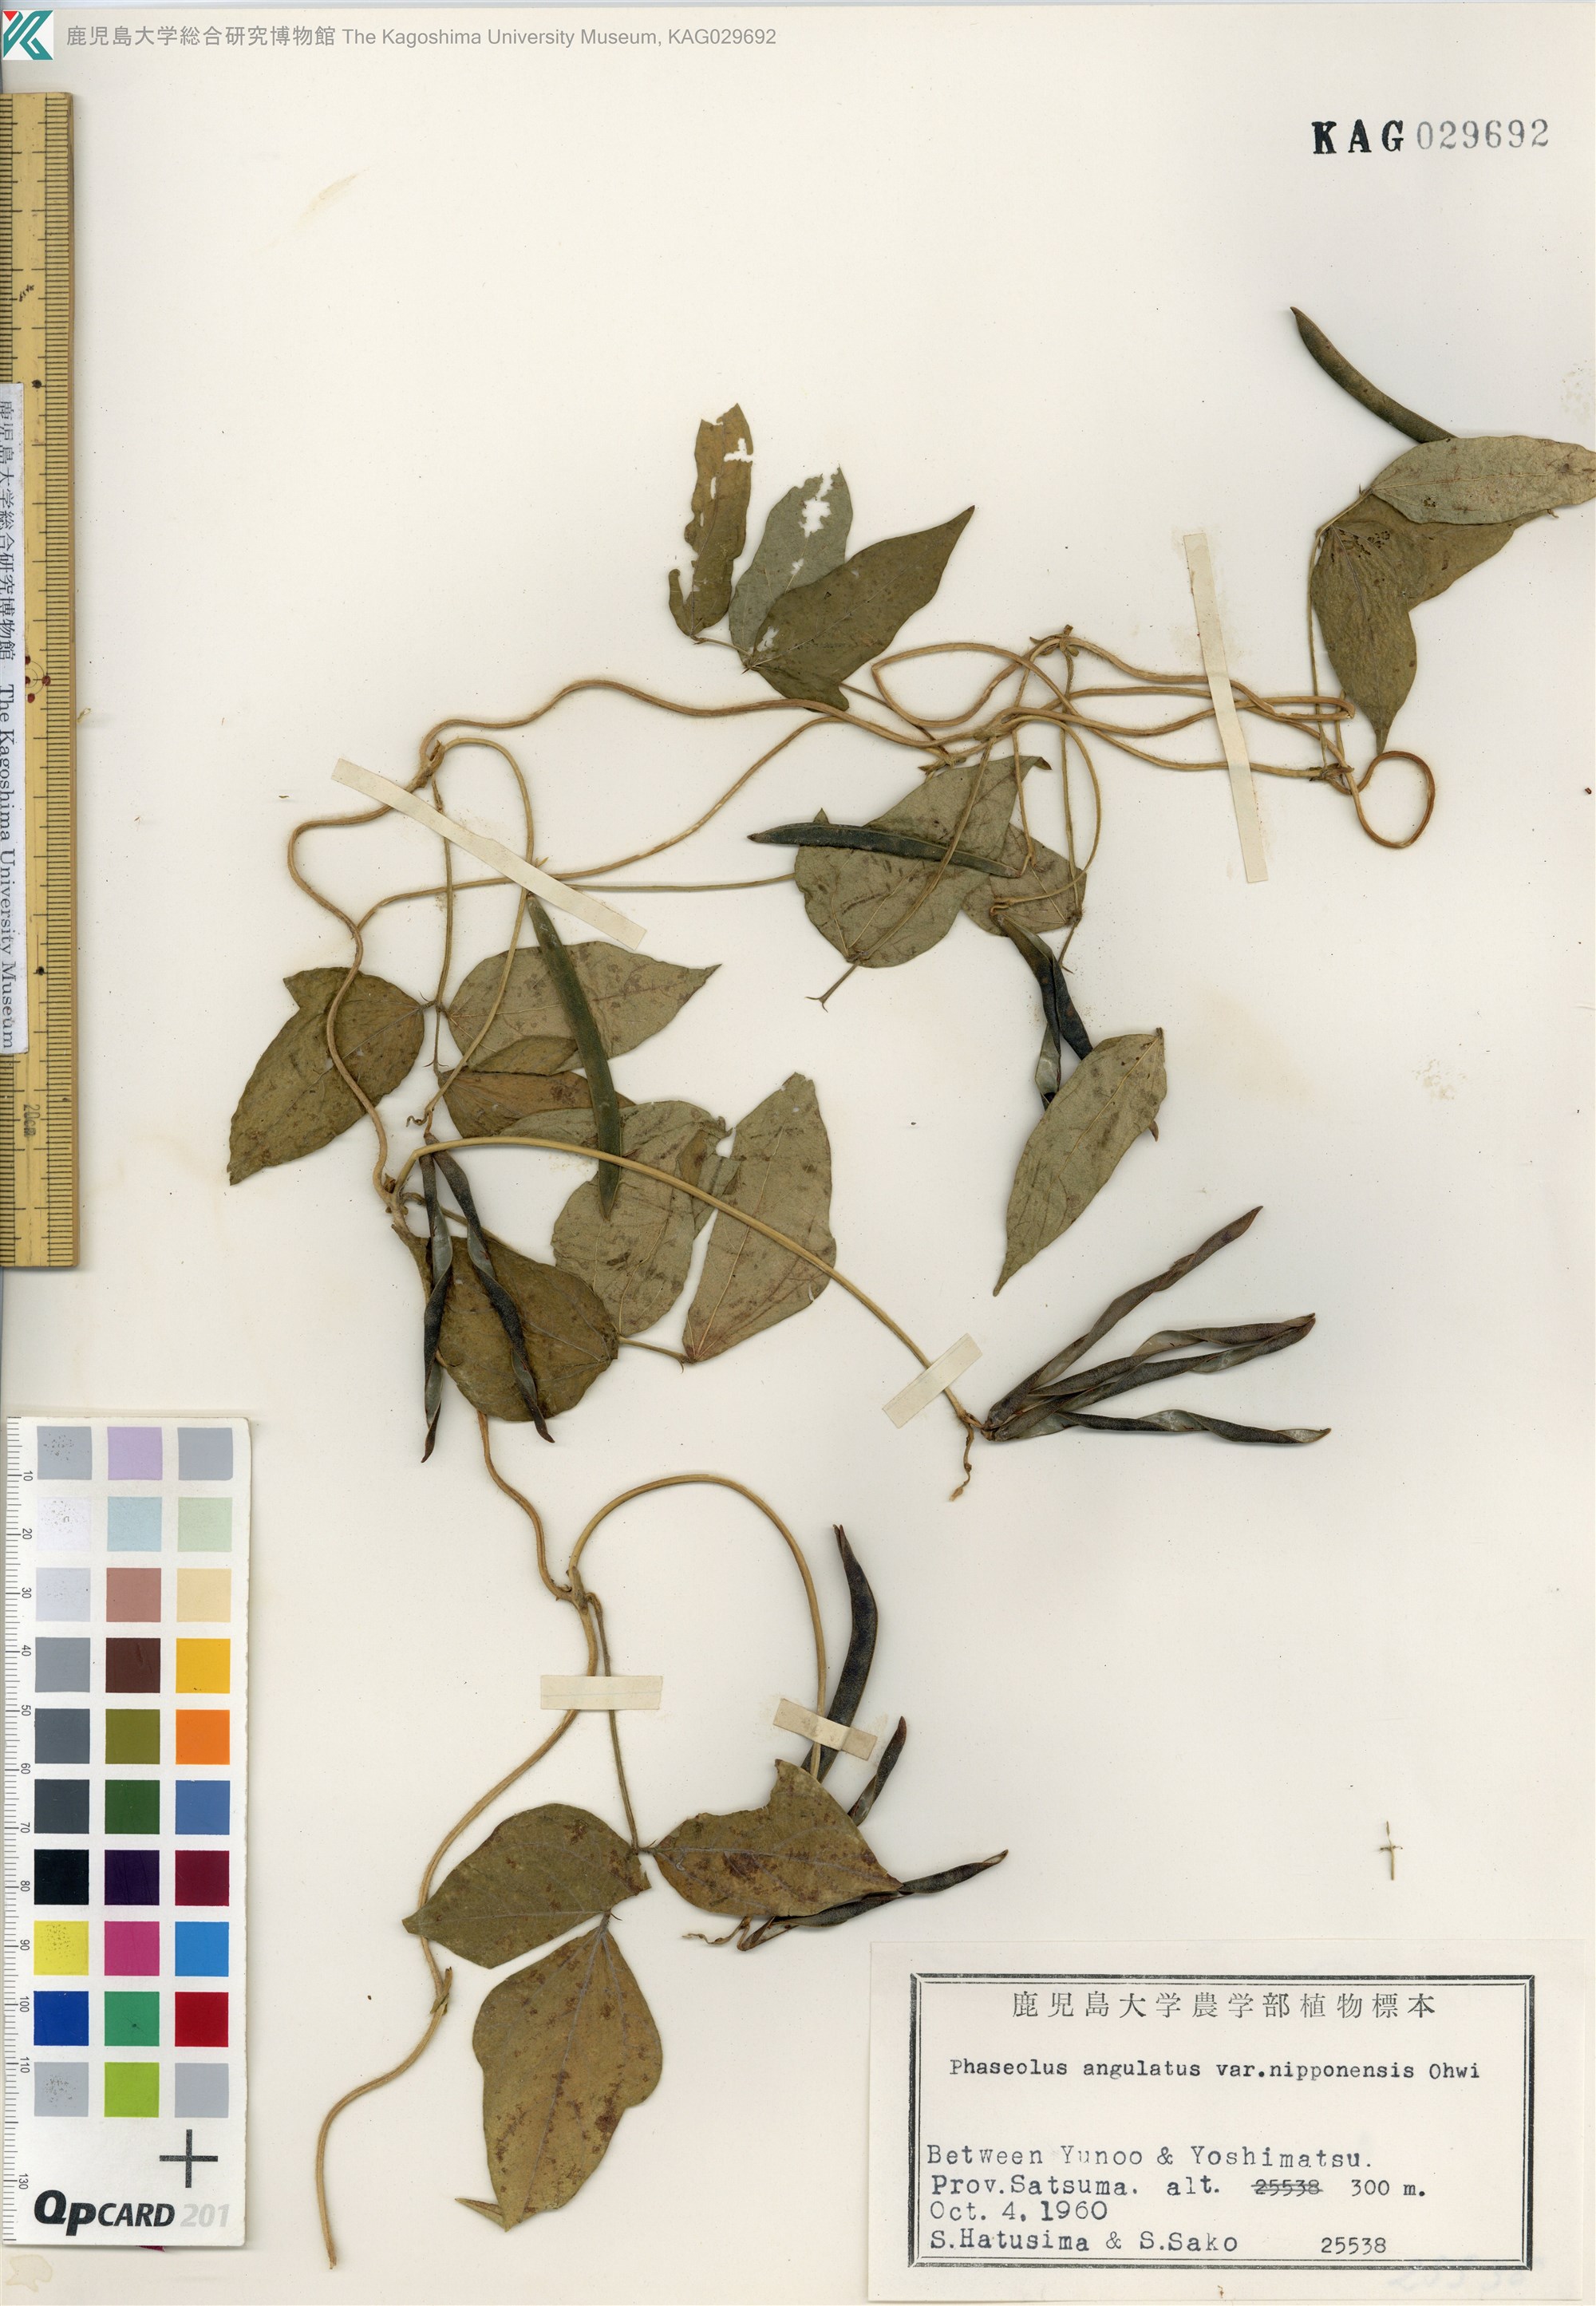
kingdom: Plantae
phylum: Tracheophyta
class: Magnoliopsida
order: Fabales
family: Fabaceae
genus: Vigna
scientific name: Vigna angularis
